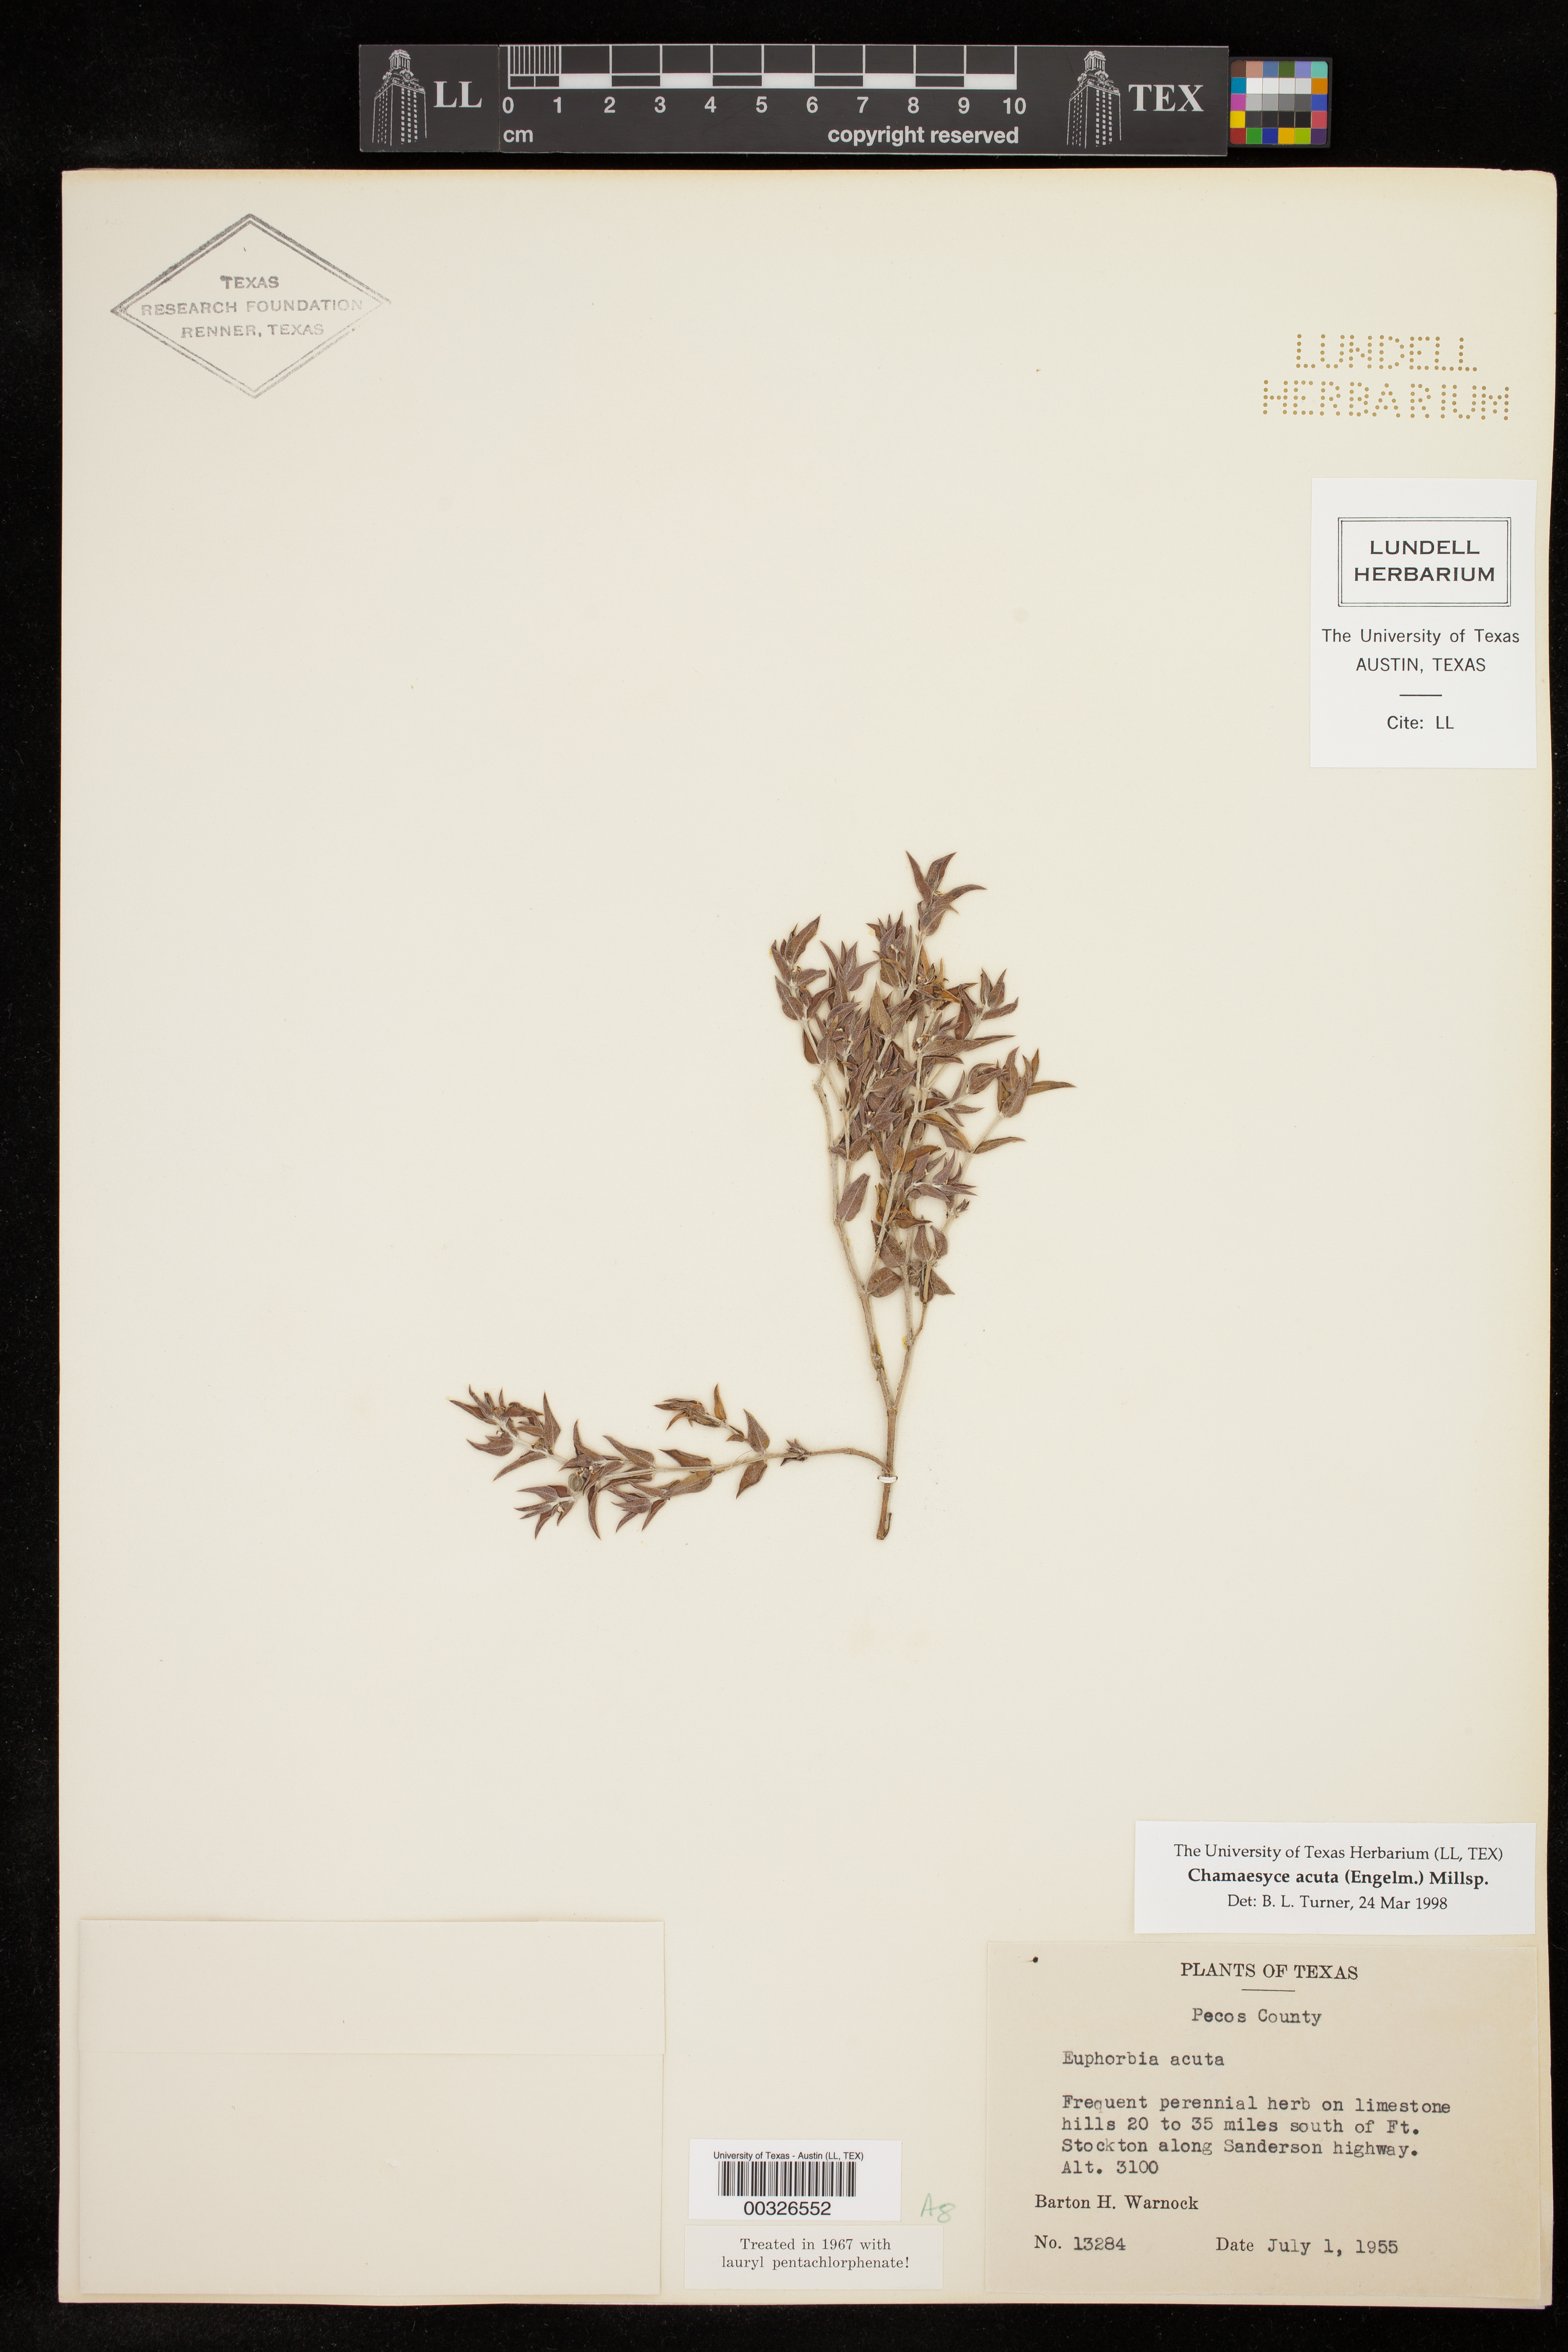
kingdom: Plantae
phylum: Tracheophyta
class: Magnoliopsida
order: Malpighiales
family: Euphorbiaceae
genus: Euphorbia
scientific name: Euphorbia acuta
